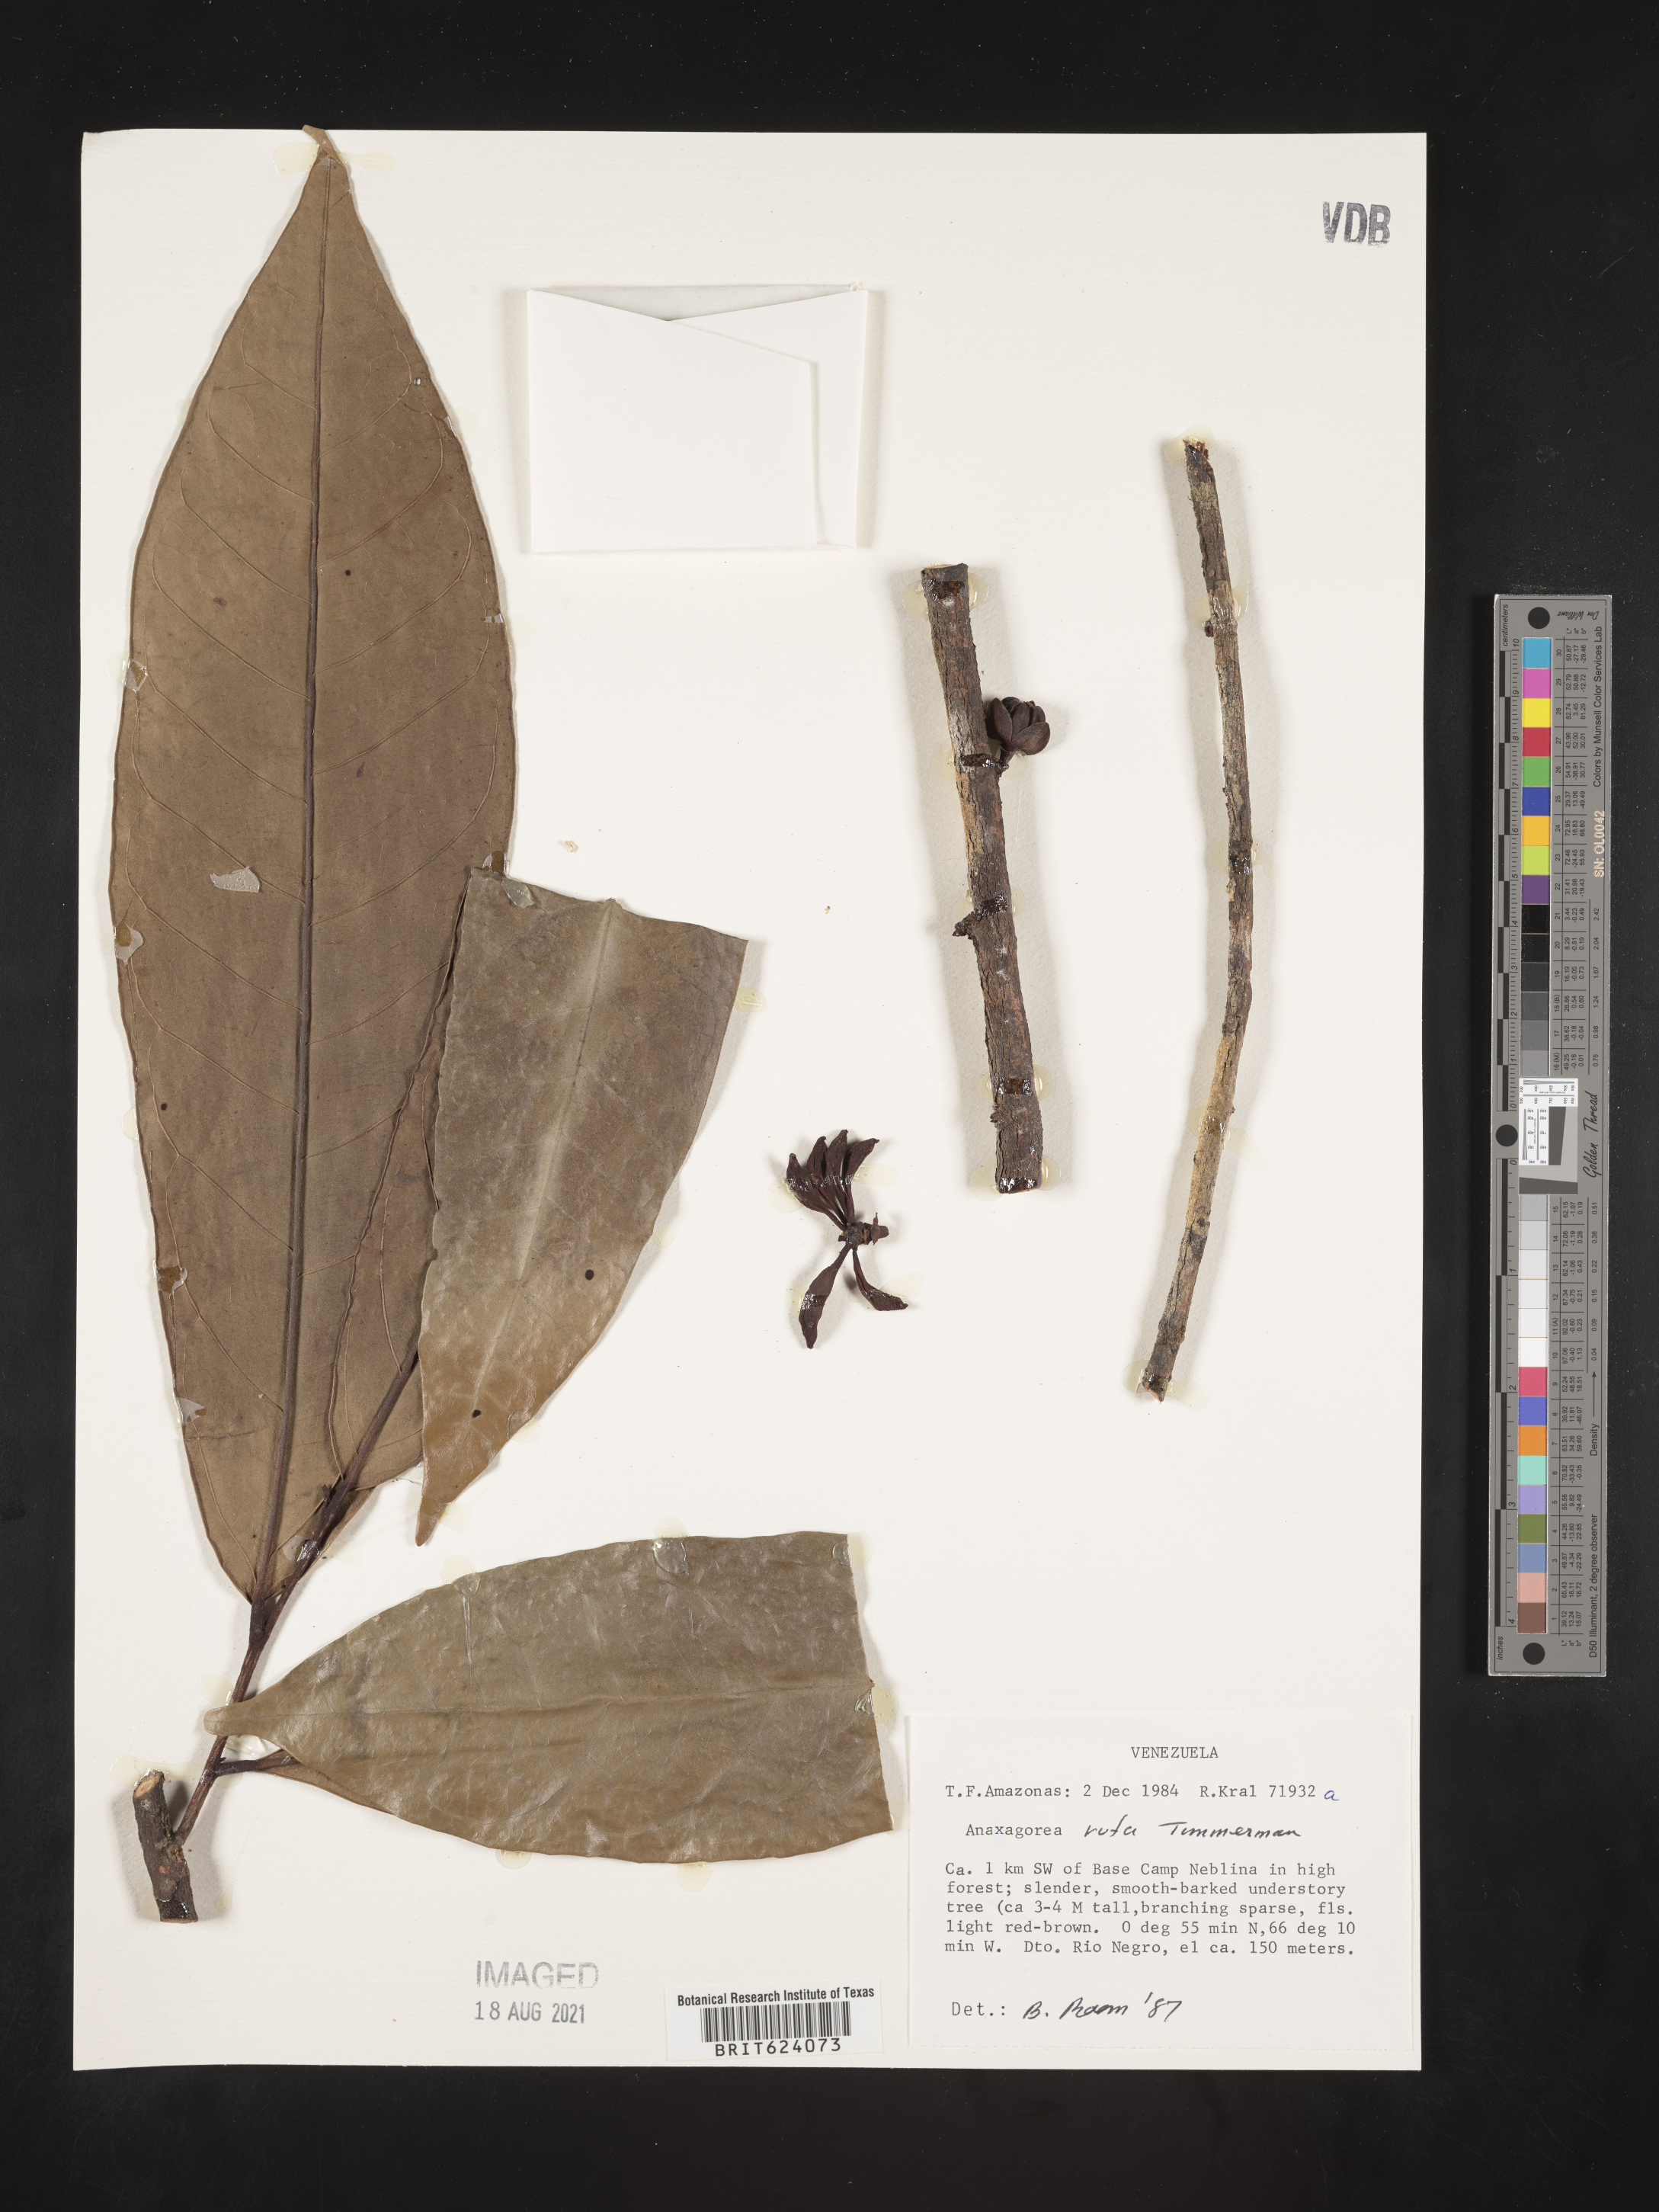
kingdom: Plantae
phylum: Tracheophyta
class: Magnoliopsida
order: Magnoliales
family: Annonaceae
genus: Anaxagorea
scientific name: Anaxagorea rufa
